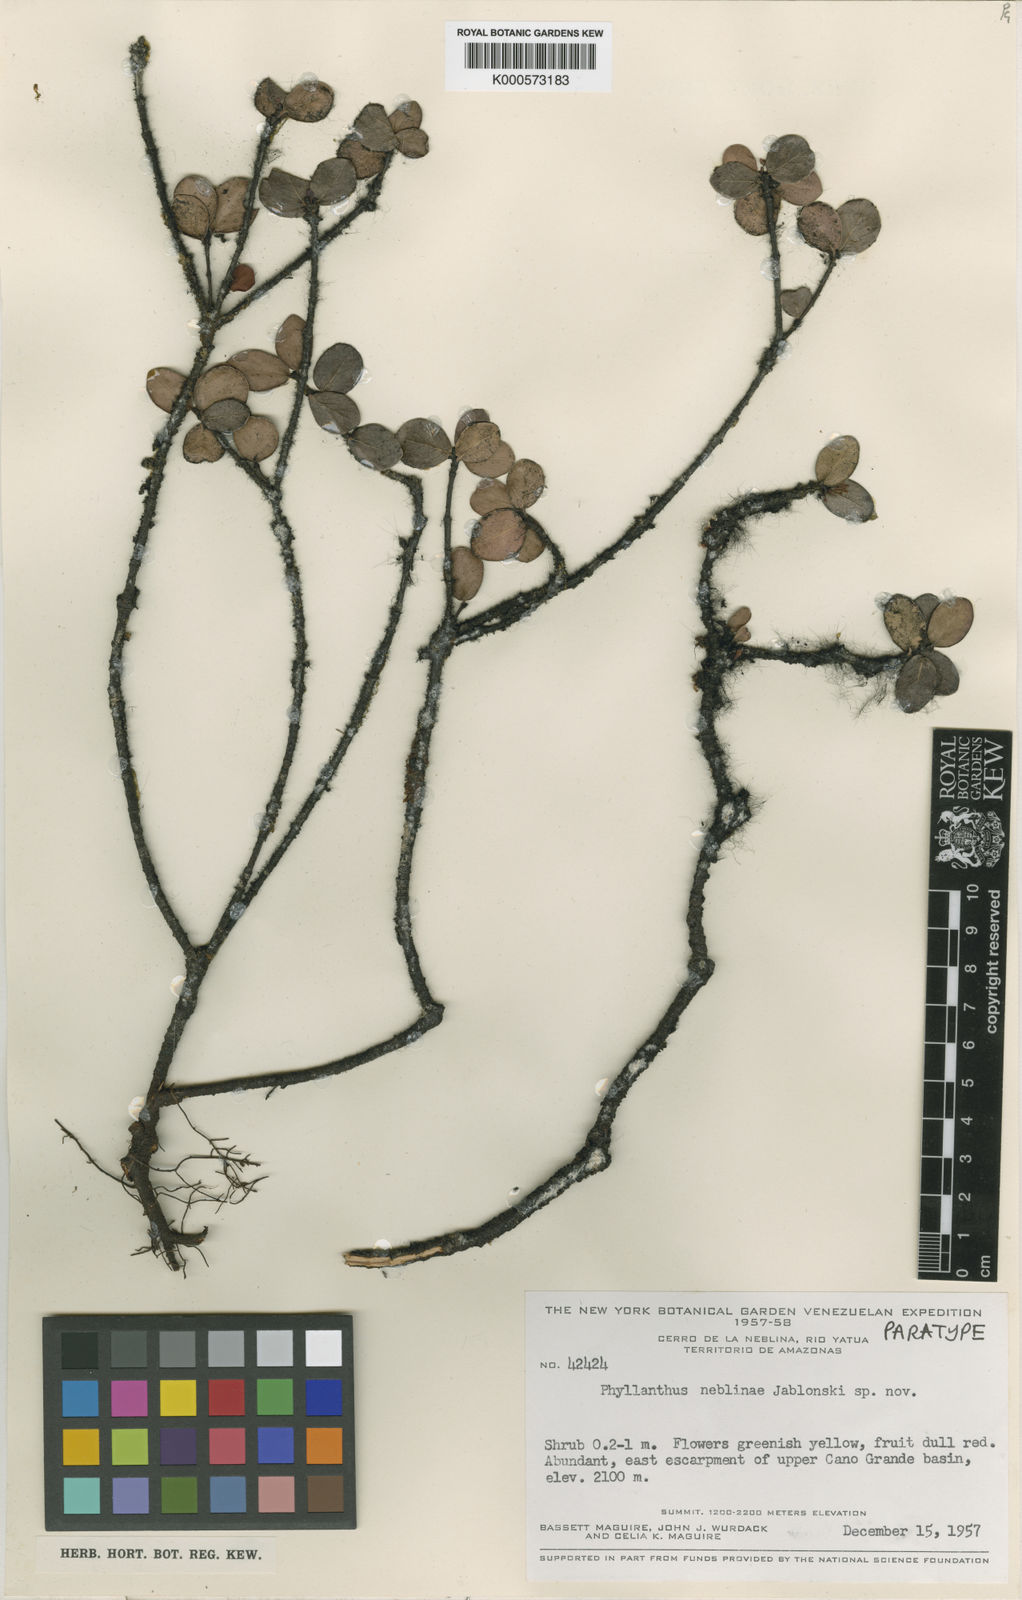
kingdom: Plantae
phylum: Tracheophyta
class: Magnoliopsida
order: Malpighiales
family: Phyllanthaceae
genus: Phyllanthus
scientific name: Phyllanthus neblinae
